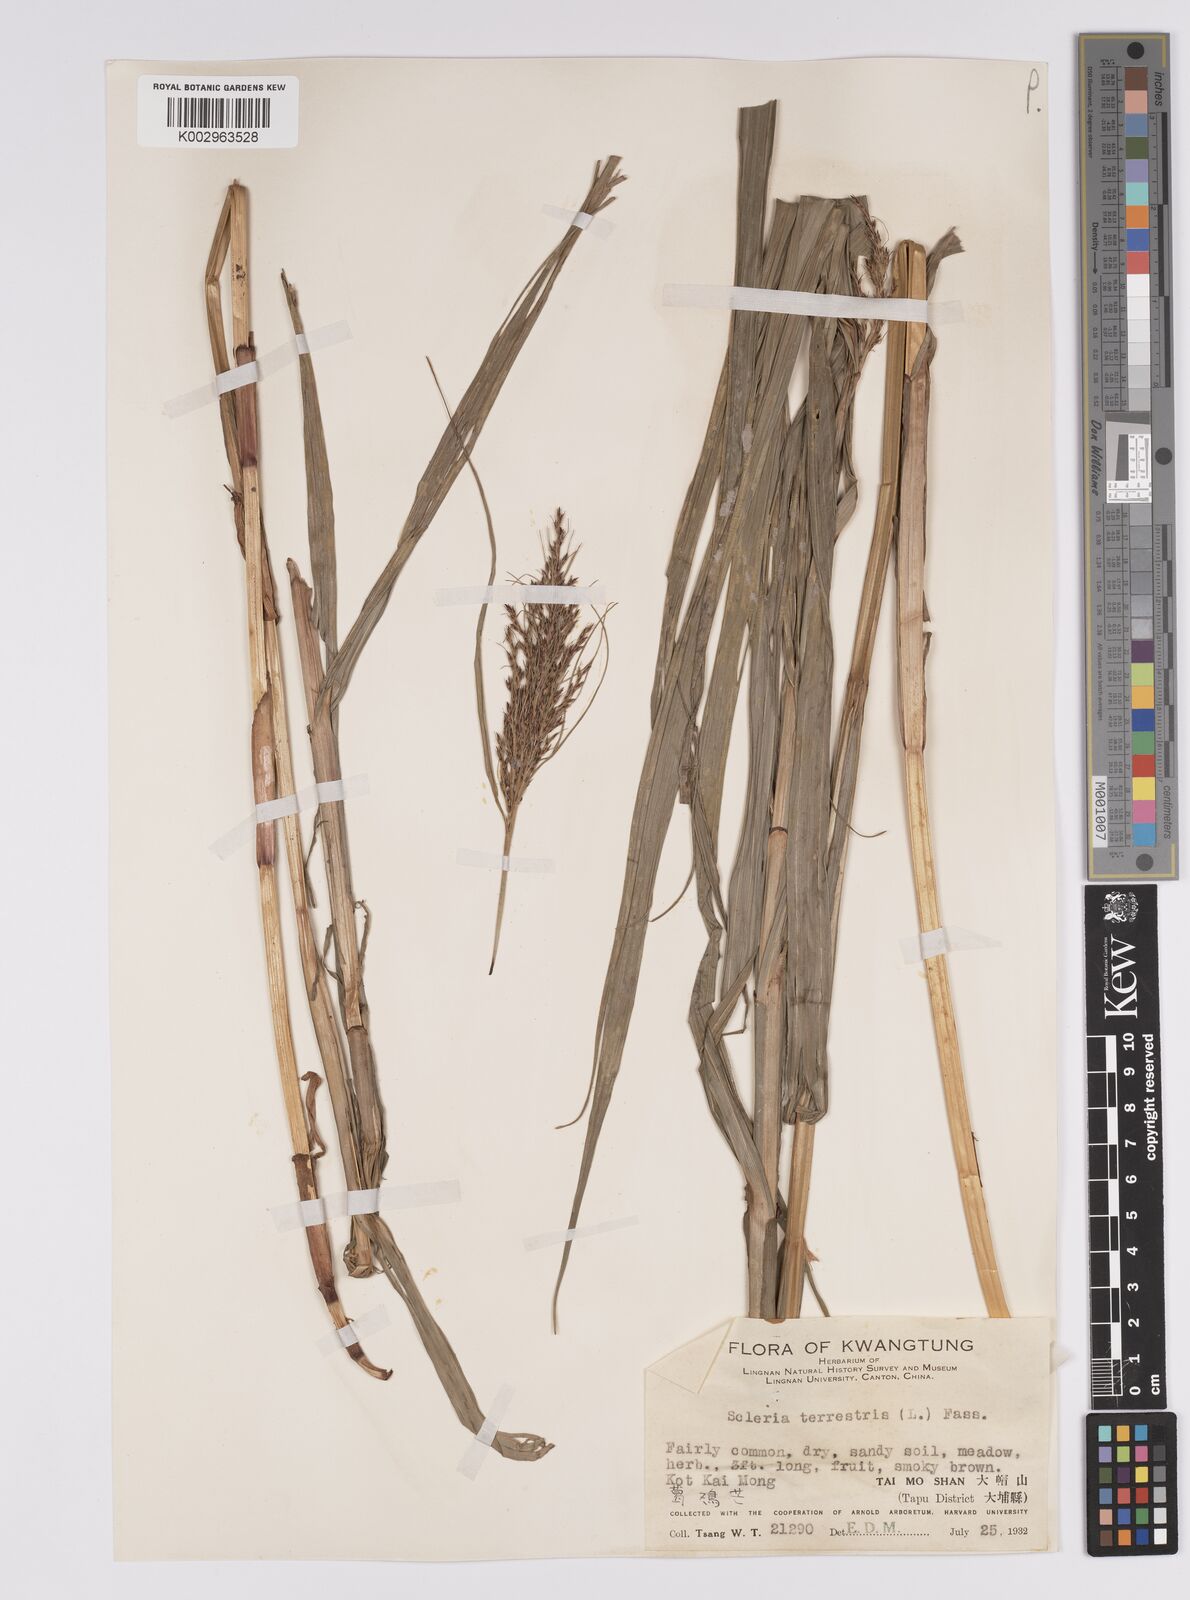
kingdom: Plantae
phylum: Tracheophyta
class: Liliopsida
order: Poales
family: Cyperaceae
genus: Scleria
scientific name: Scleria terrestris
